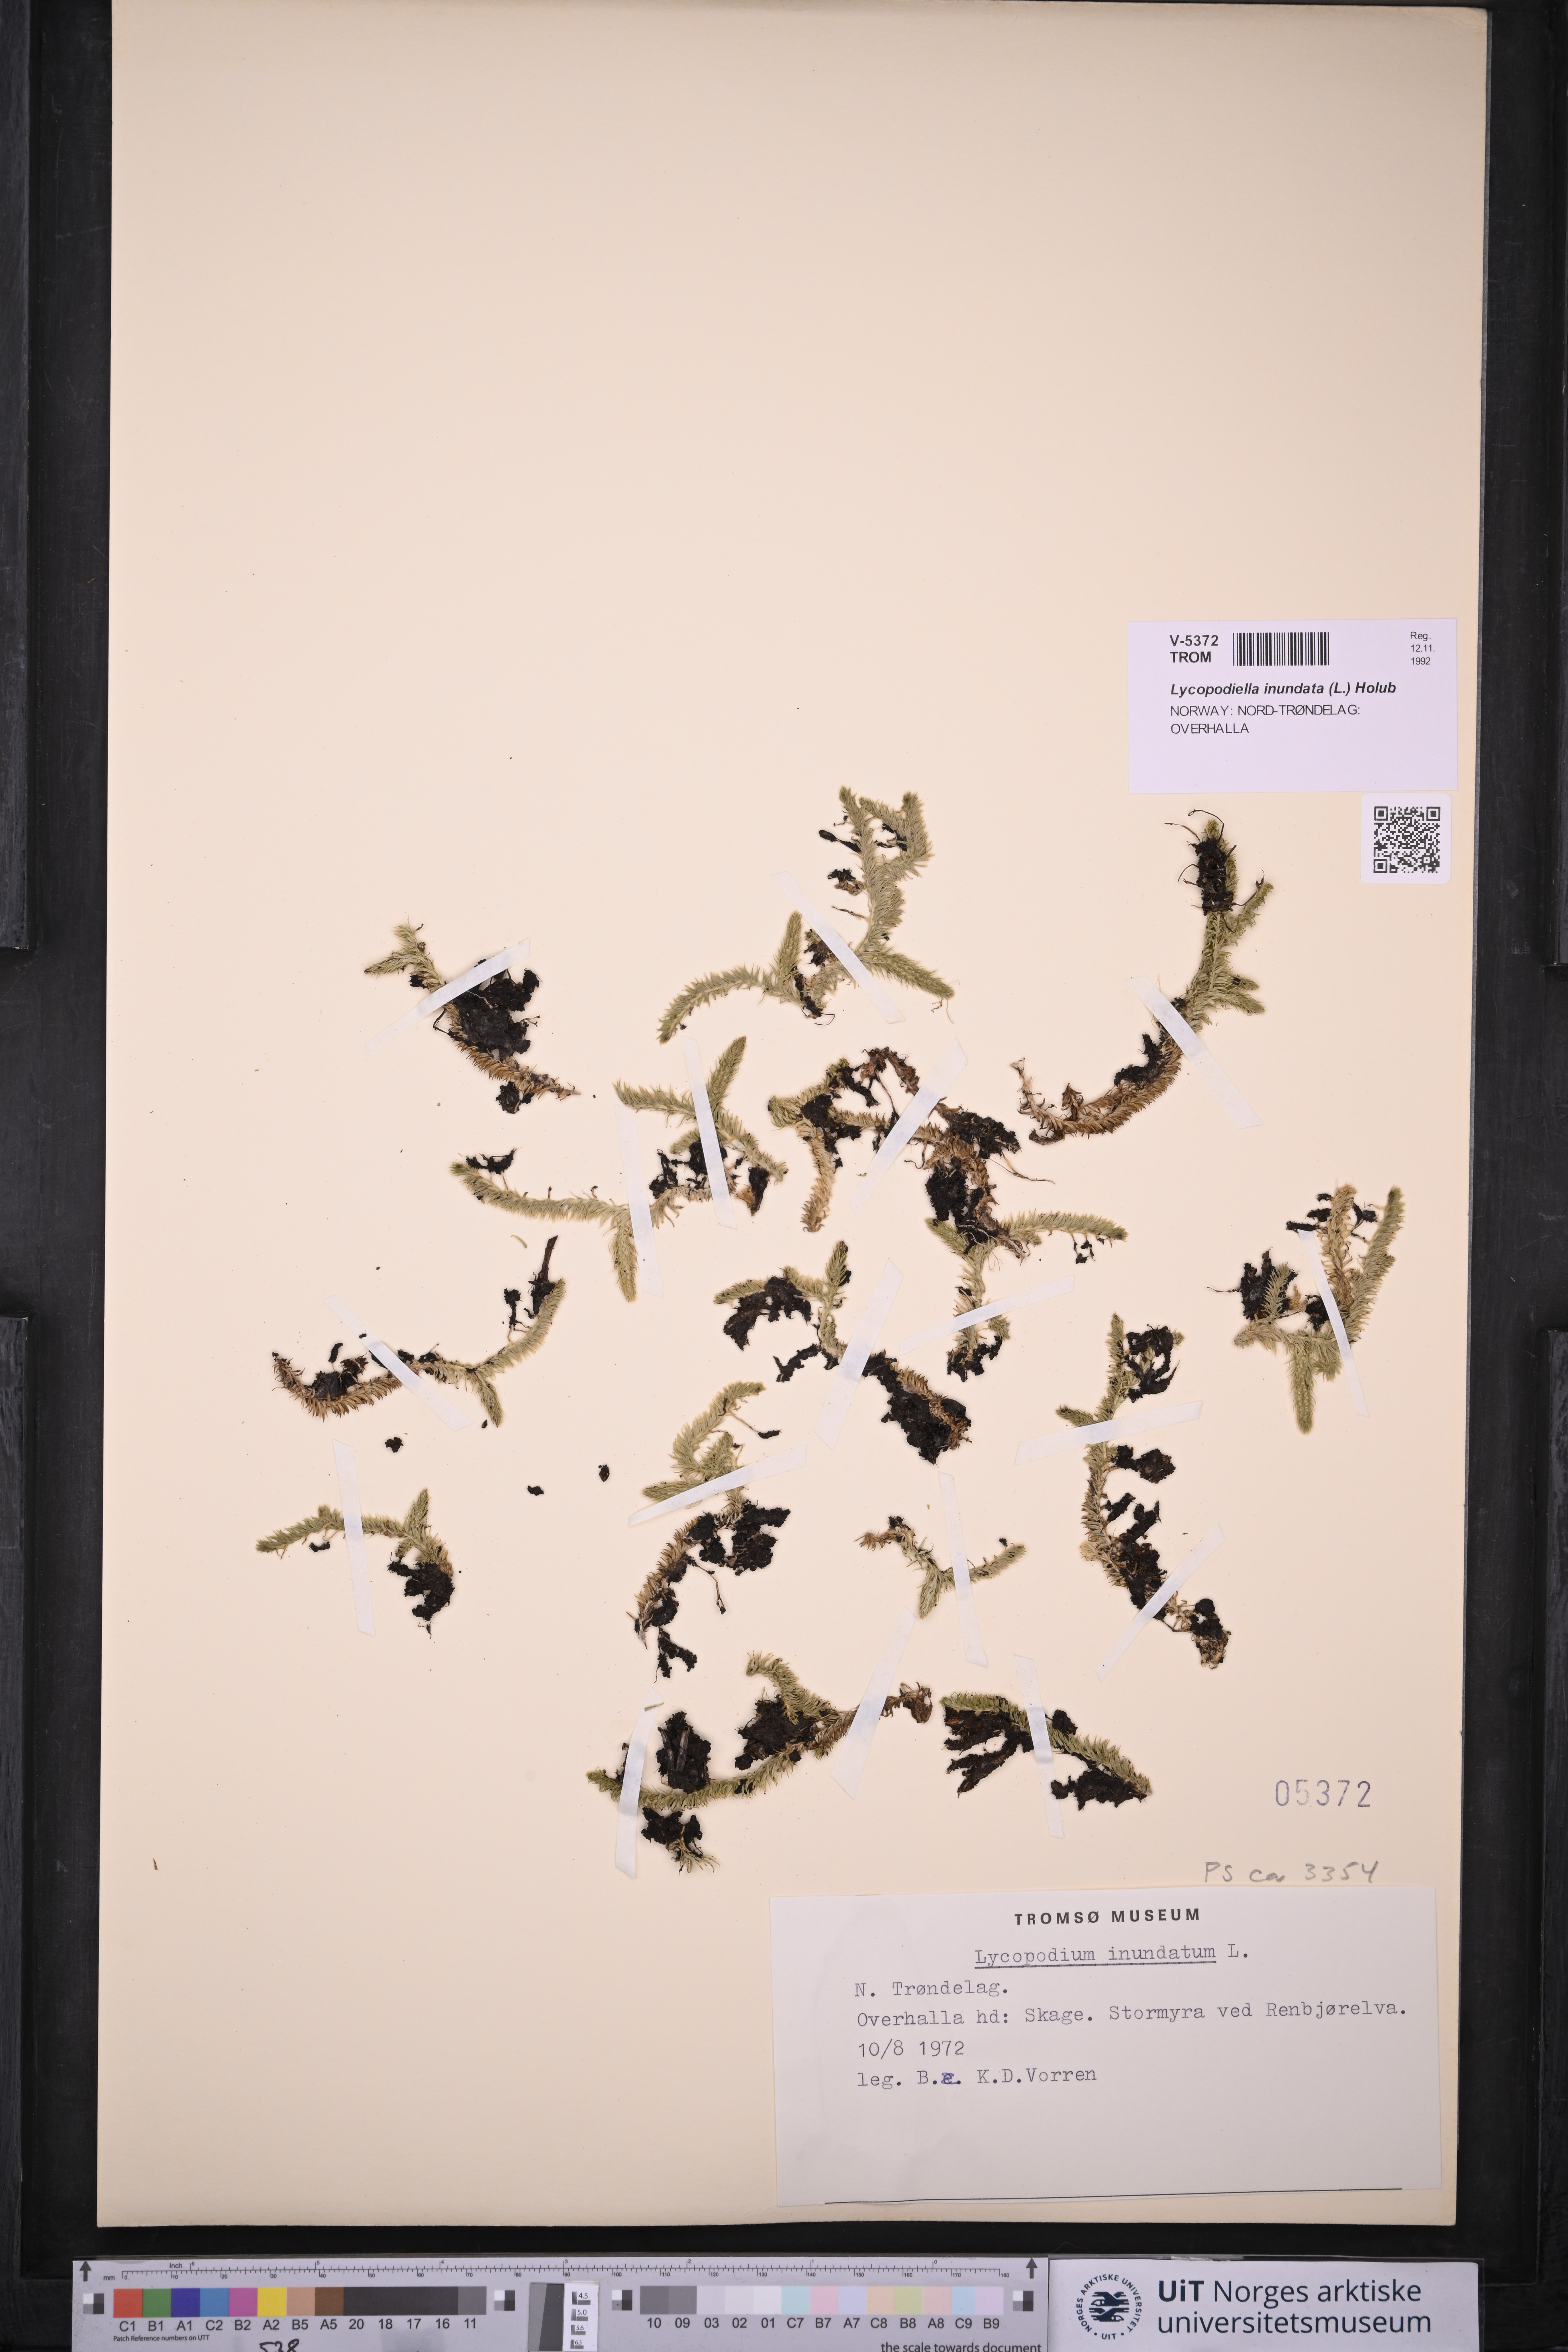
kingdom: Plantae
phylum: Tracheophyta
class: Lycopodiopsida
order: Lycopodiales
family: Lycopodiaceae
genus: Lycopodiella
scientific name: Lycopodiella inundata
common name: Marsh clubmoss
